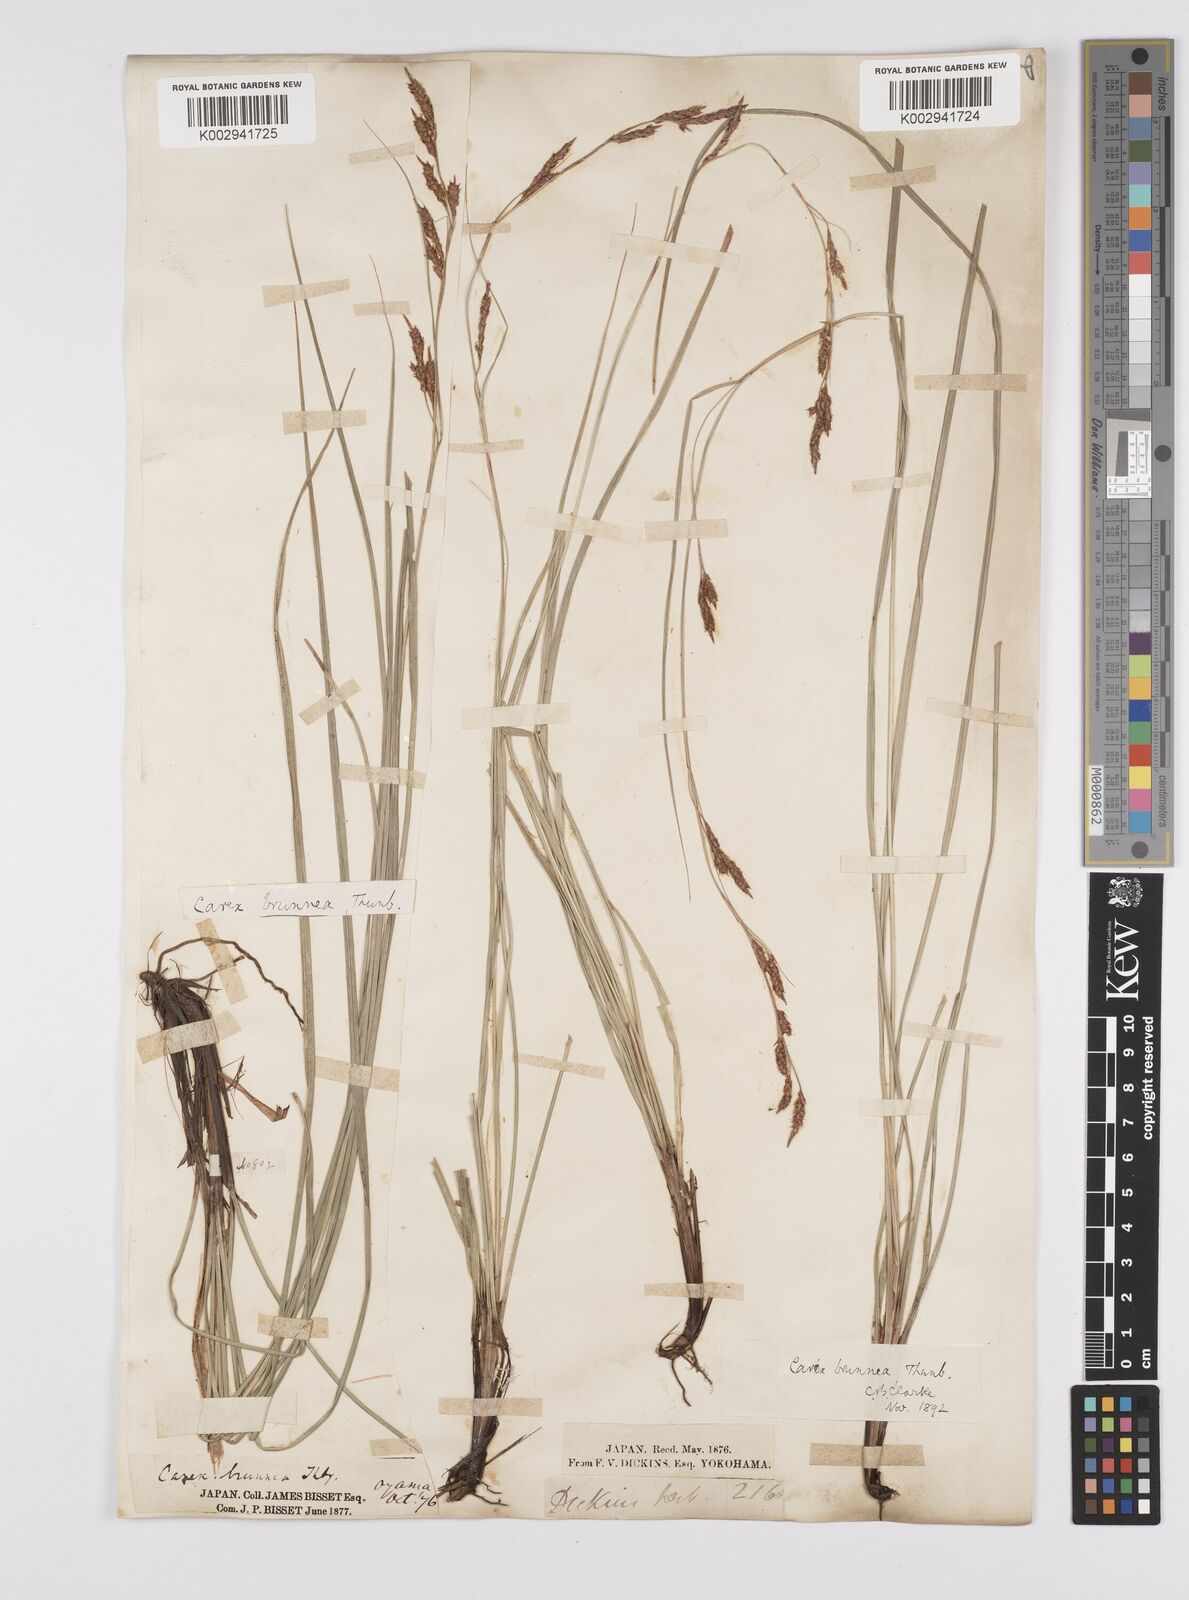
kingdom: Plantae
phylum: Tracheophyta
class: Liliopsida
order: Poales
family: Cyperaceae
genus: Carex
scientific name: Carex brunnea
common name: Greater brown sedge
